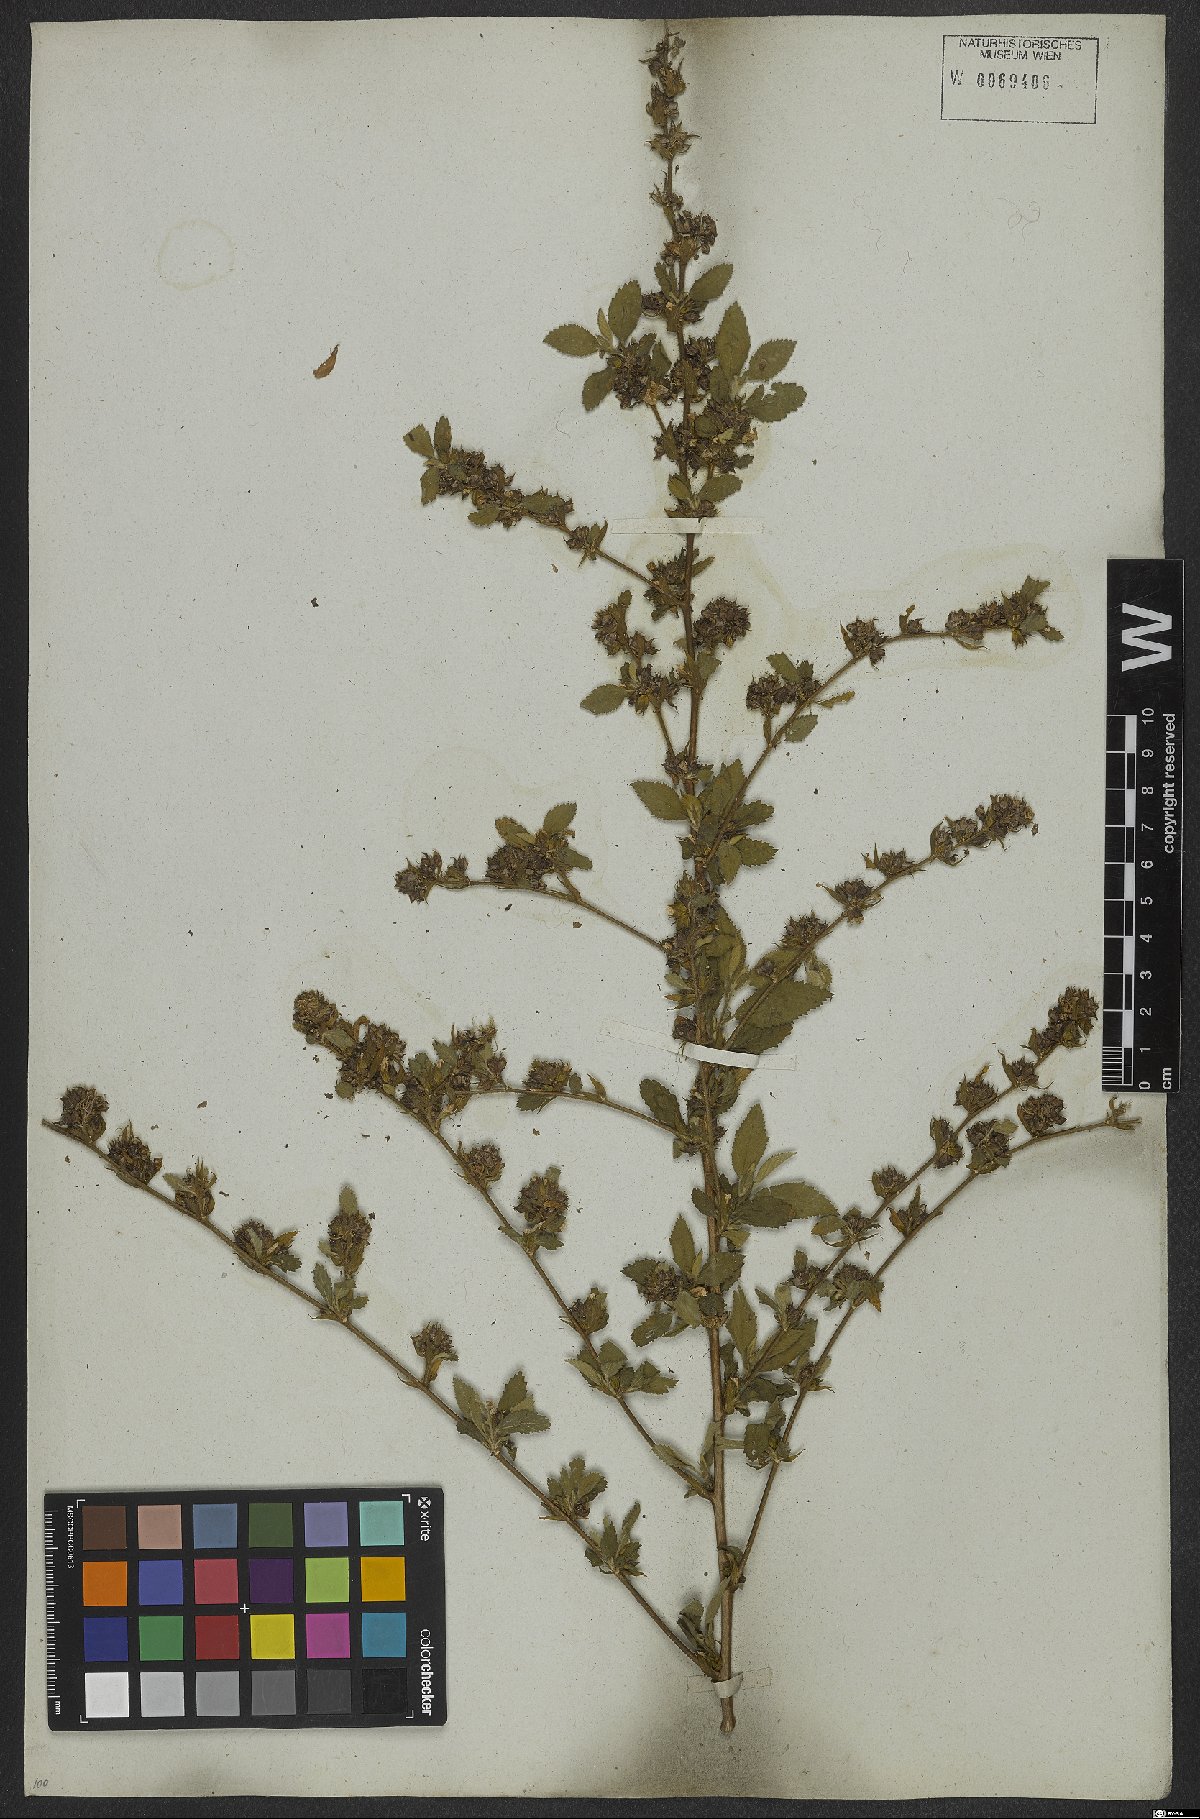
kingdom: Plantae
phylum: Tracheophyta
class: Magnoliopsida
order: Malvales
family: Malvaceae
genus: Sida
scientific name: Sida acuta
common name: Common wireweed
